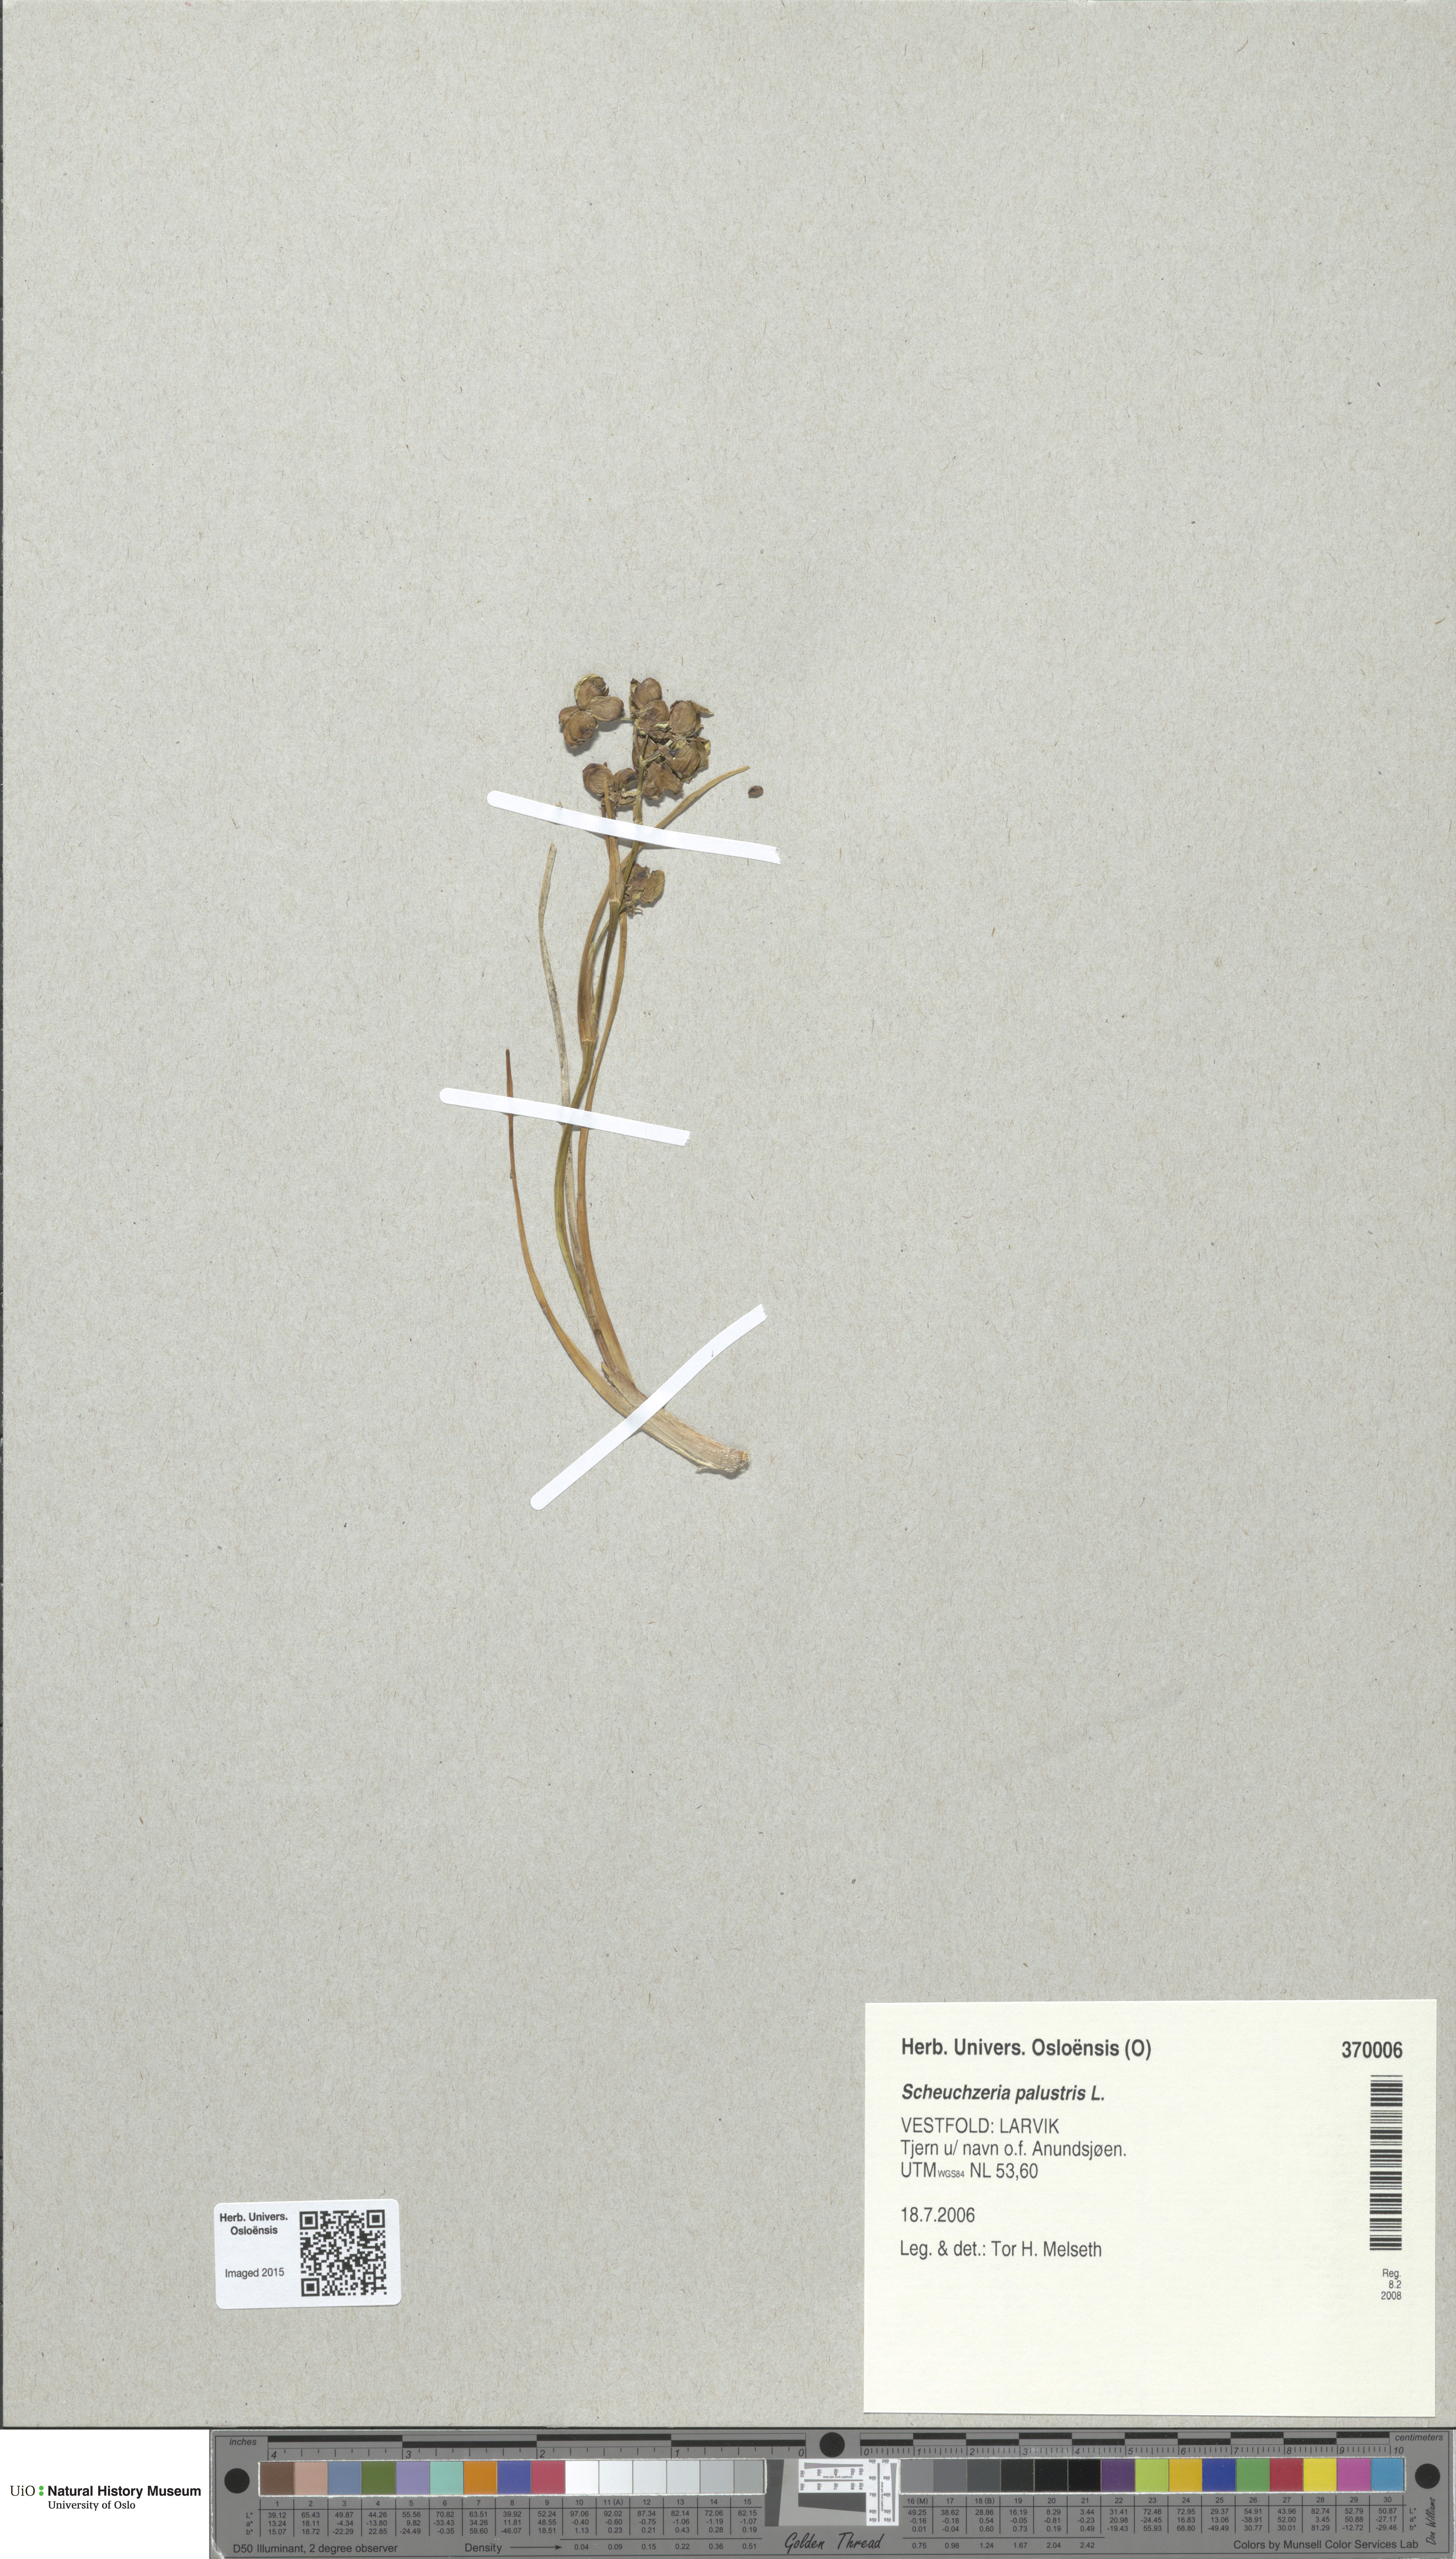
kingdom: Plantae
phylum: Tracheophyta
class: Liliopsida
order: Alismatales
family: Scheuchzeriaceae
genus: Scheuchzeria
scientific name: Scheuchzeria palustris
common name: Rannoch-rush
